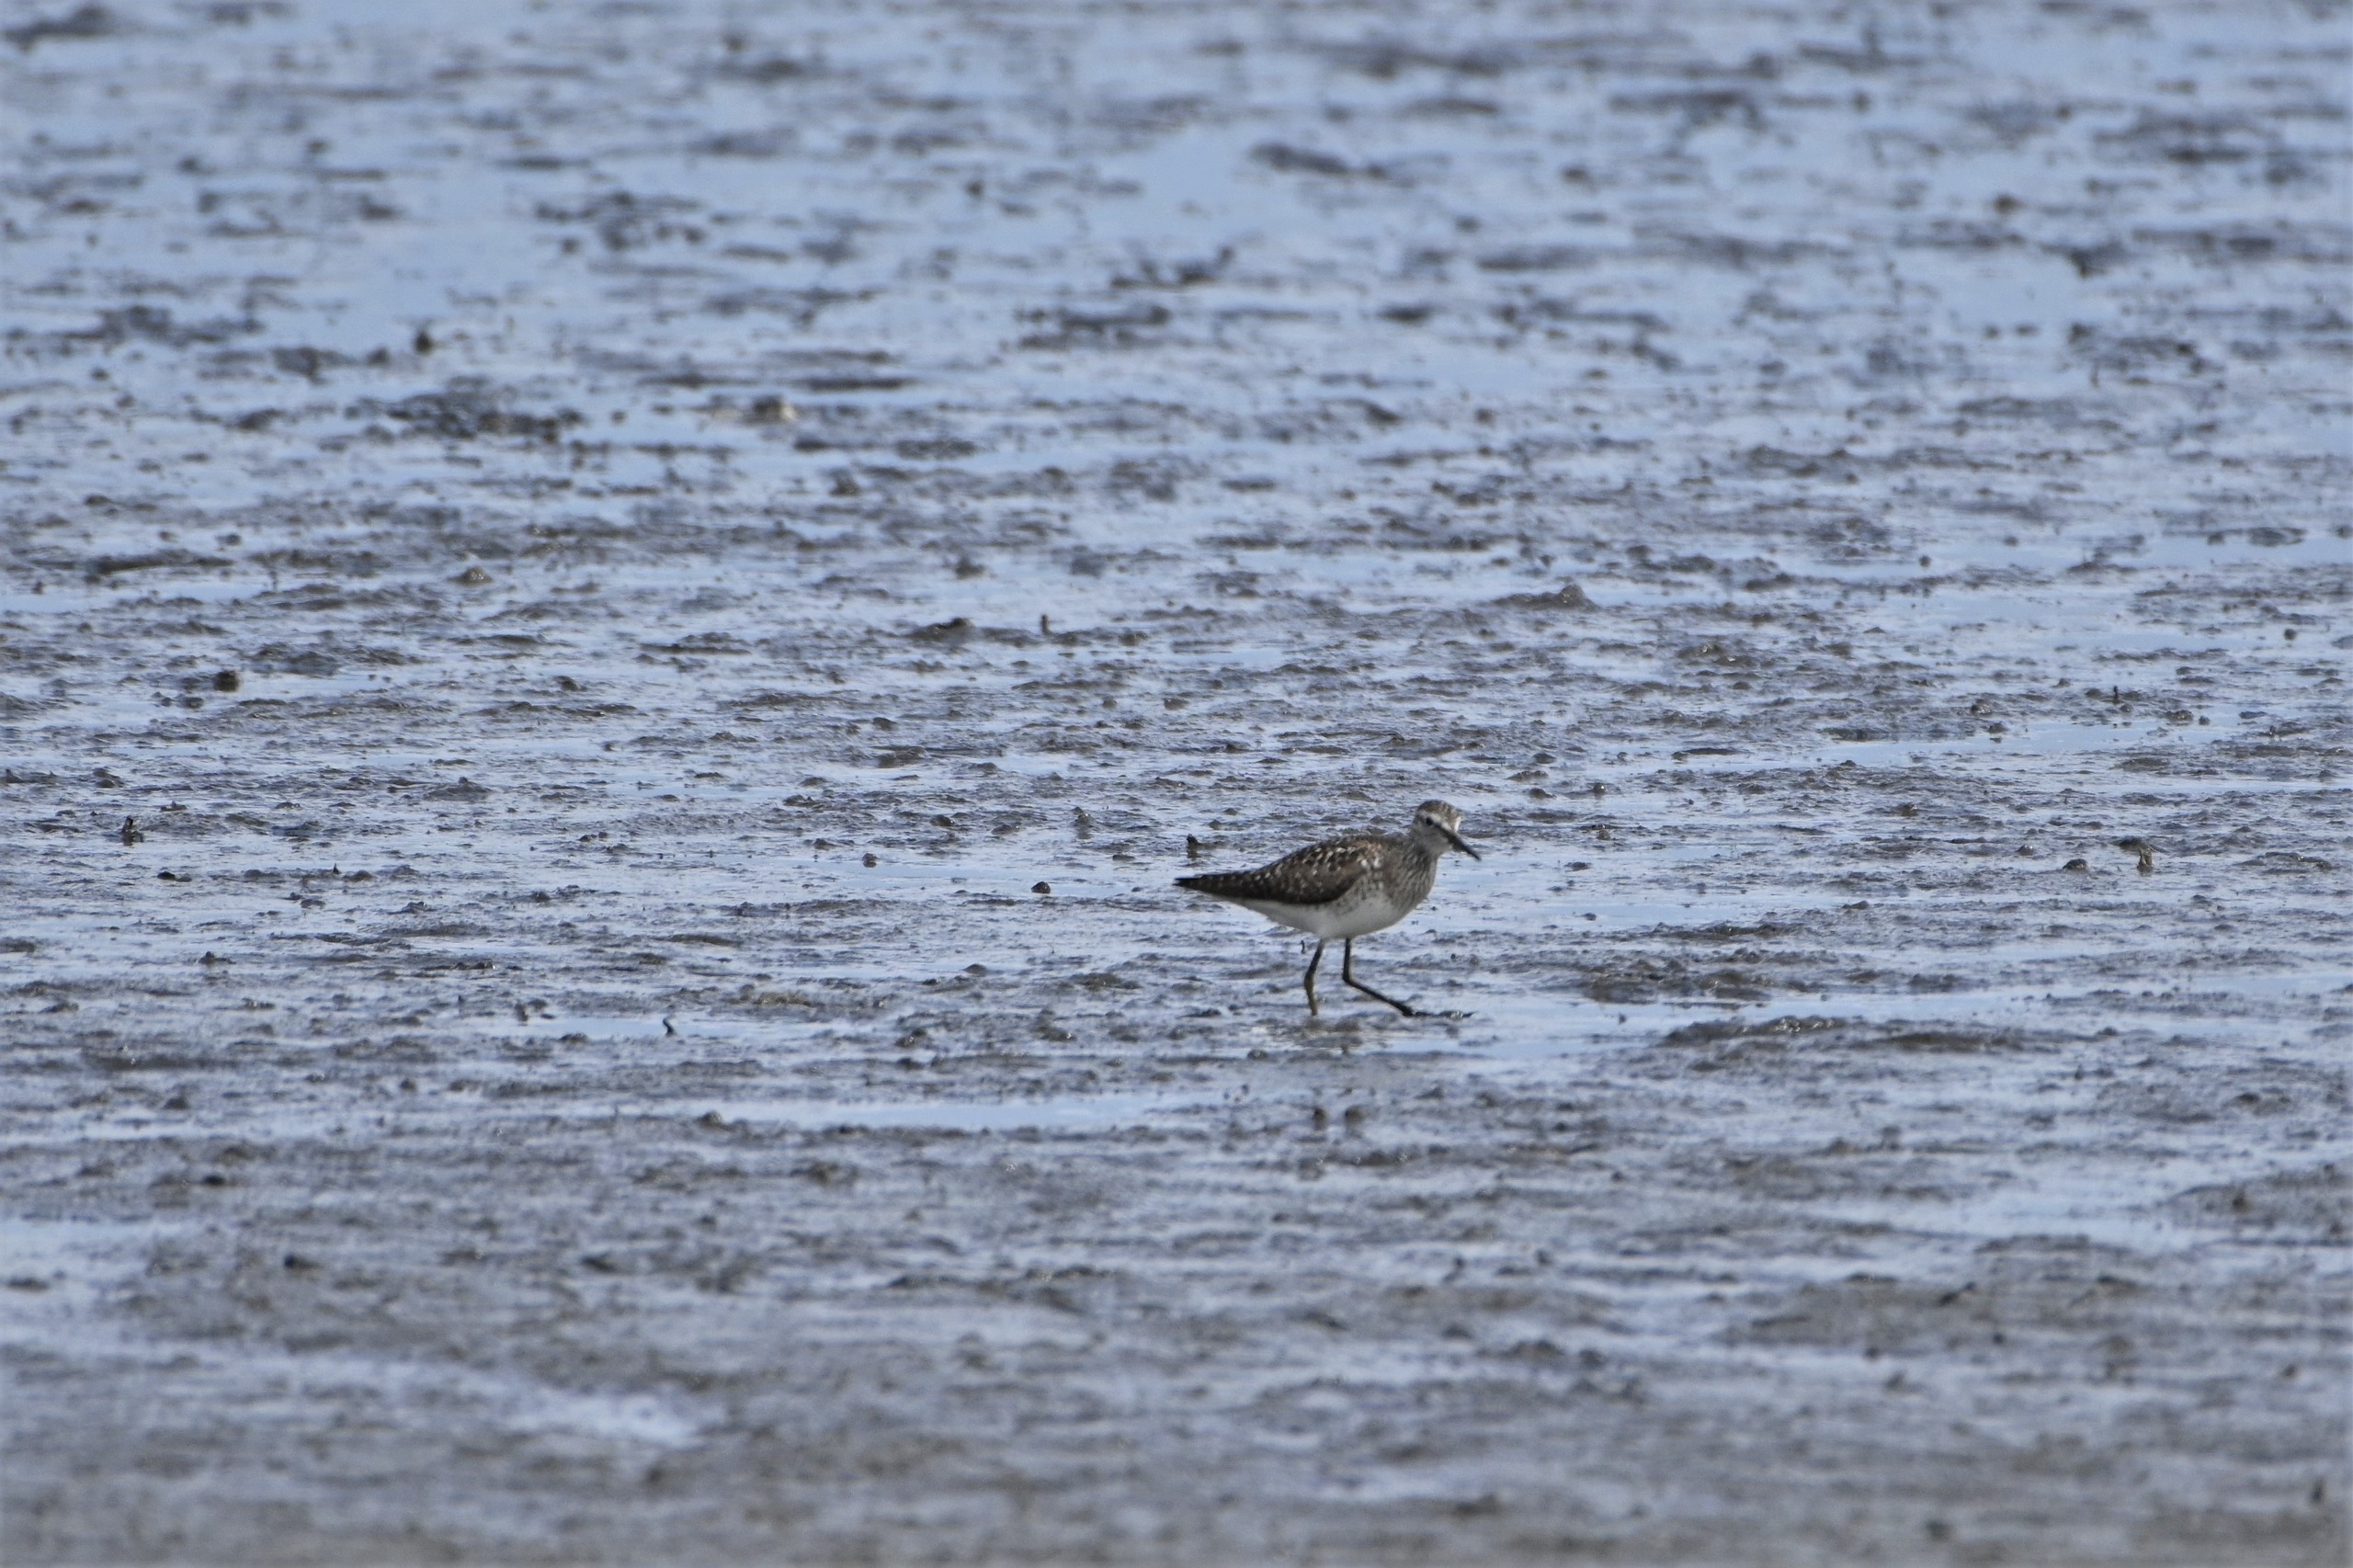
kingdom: Animalia
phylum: Chordata
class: Aves
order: Charadriiformes
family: Scolopacidae
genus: Tringa
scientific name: Tringa glareola
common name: Tinksmed
